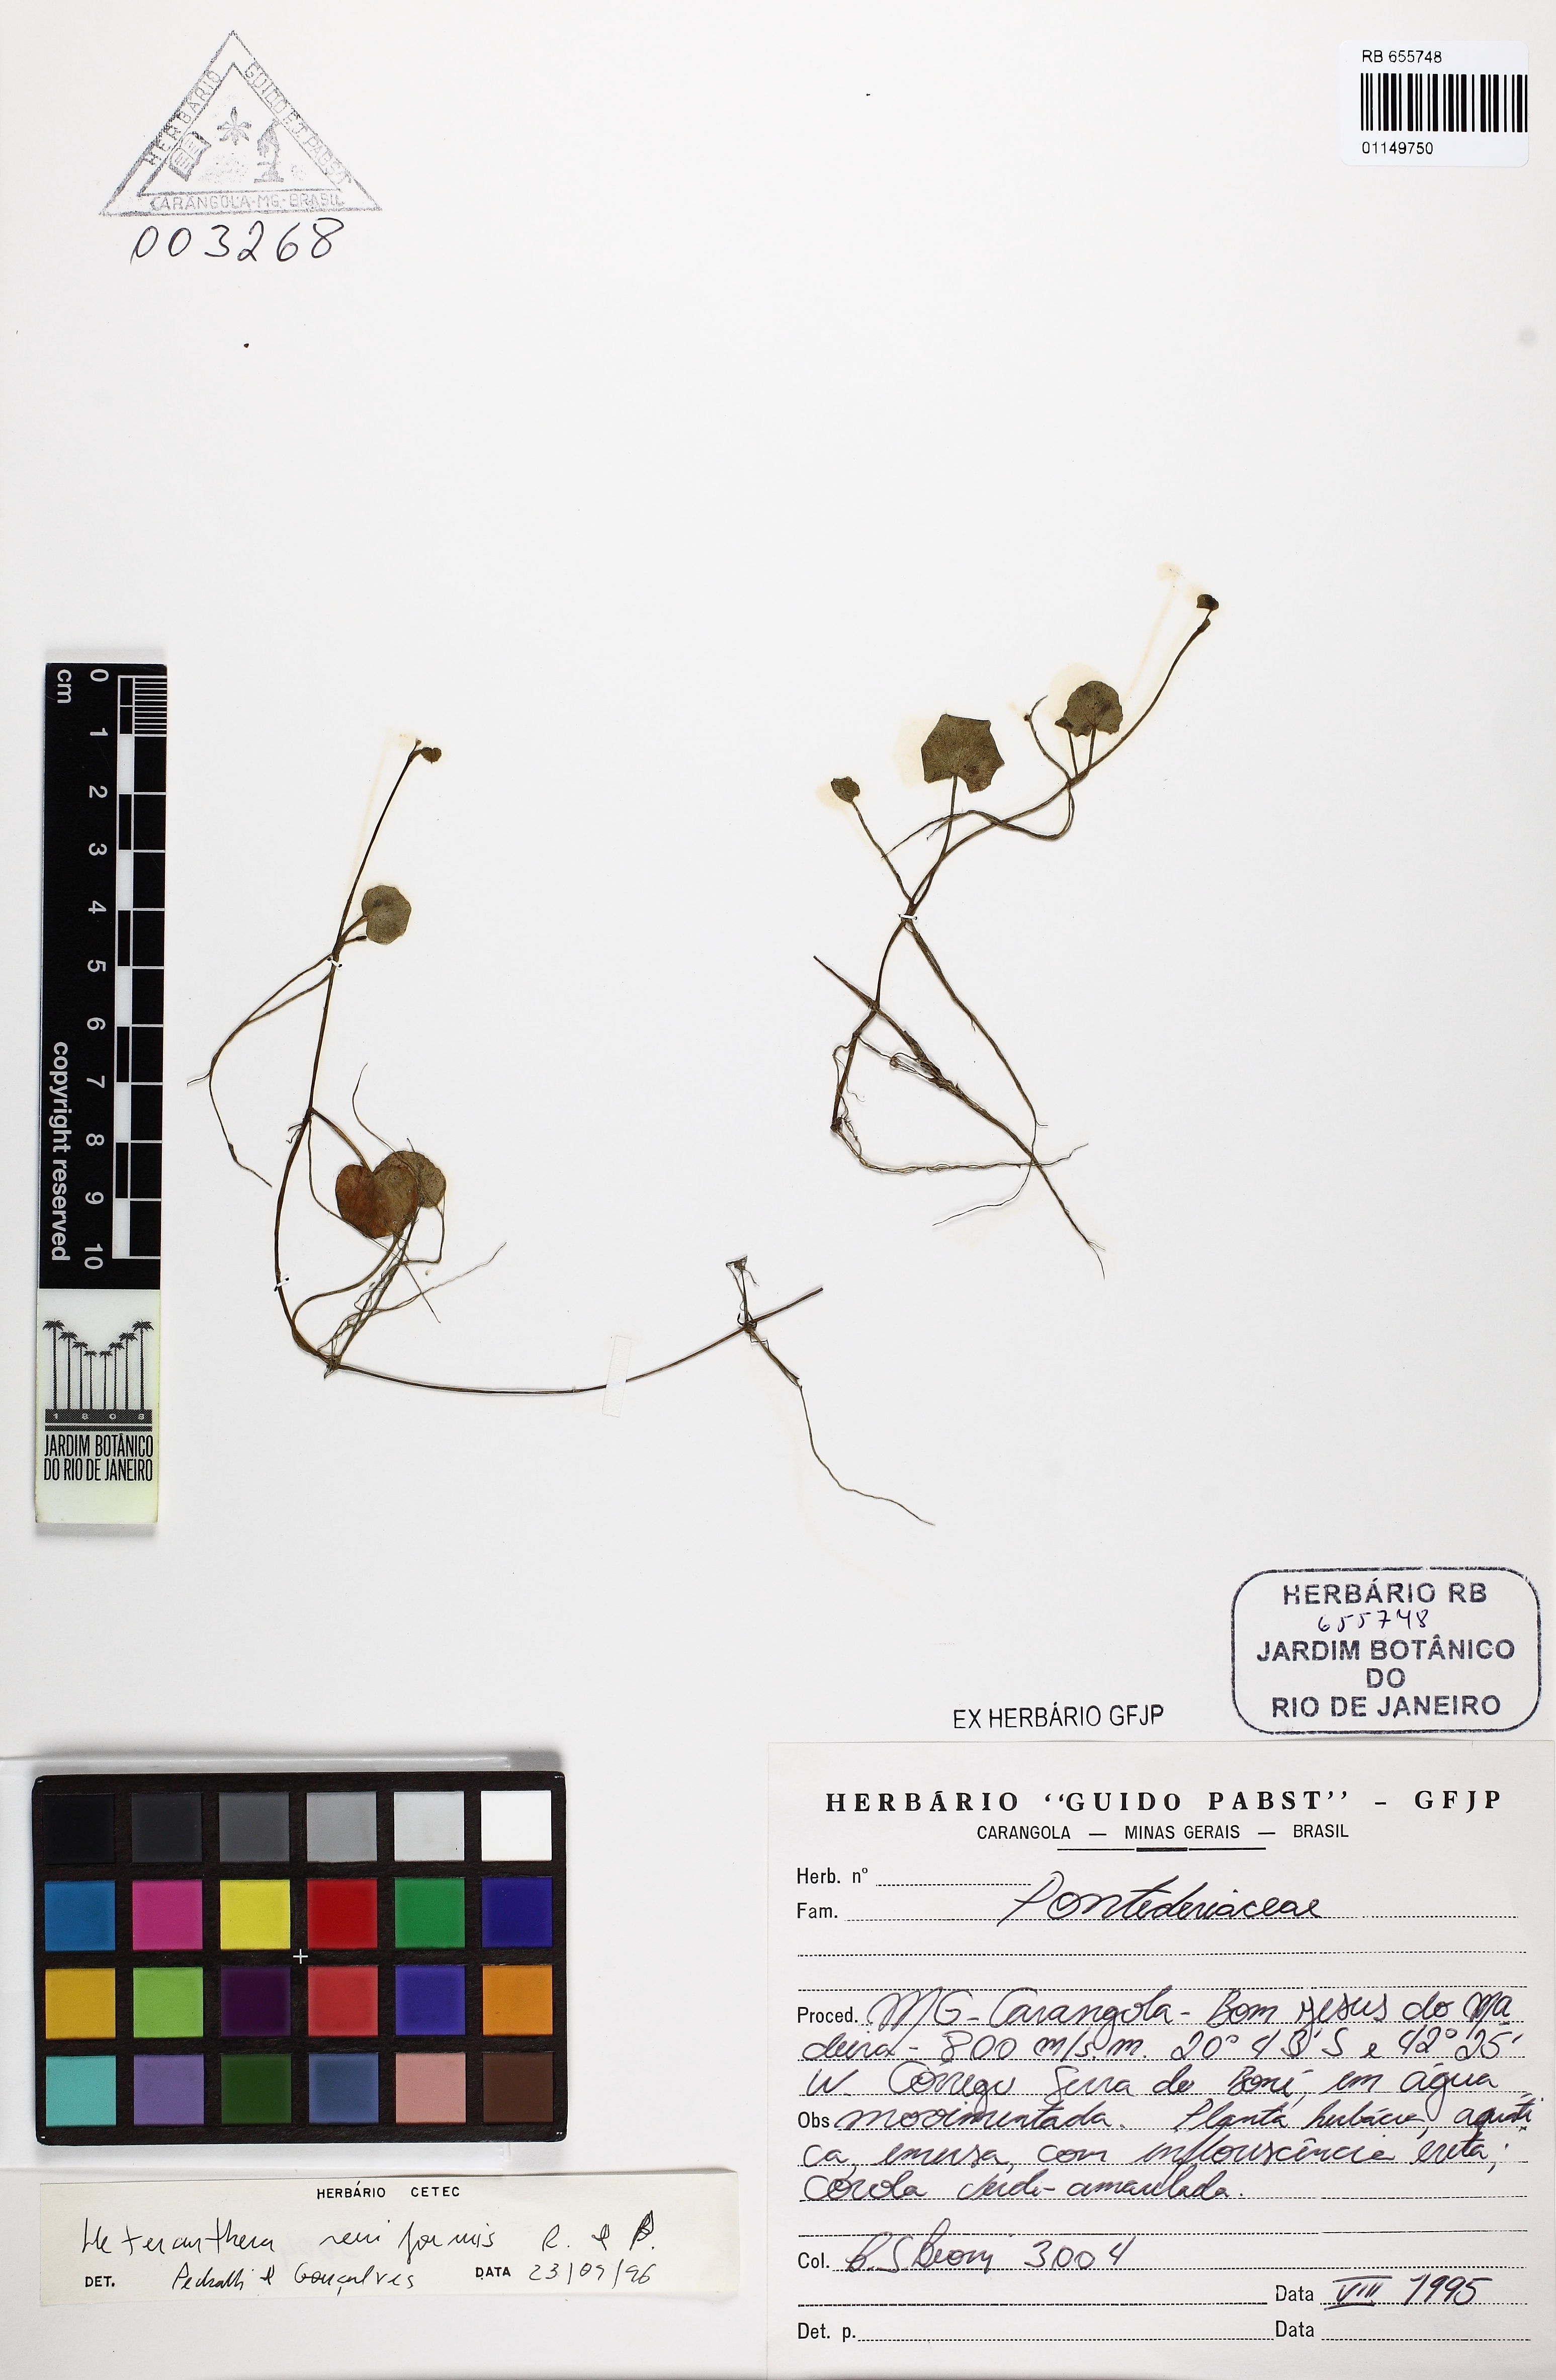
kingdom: Plantae
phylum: Tracheophyta
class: Magnoliopsida
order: Ranunculales
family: Ranunculaceae
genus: Ranunculus
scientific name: Ranunculus flagelliformis
